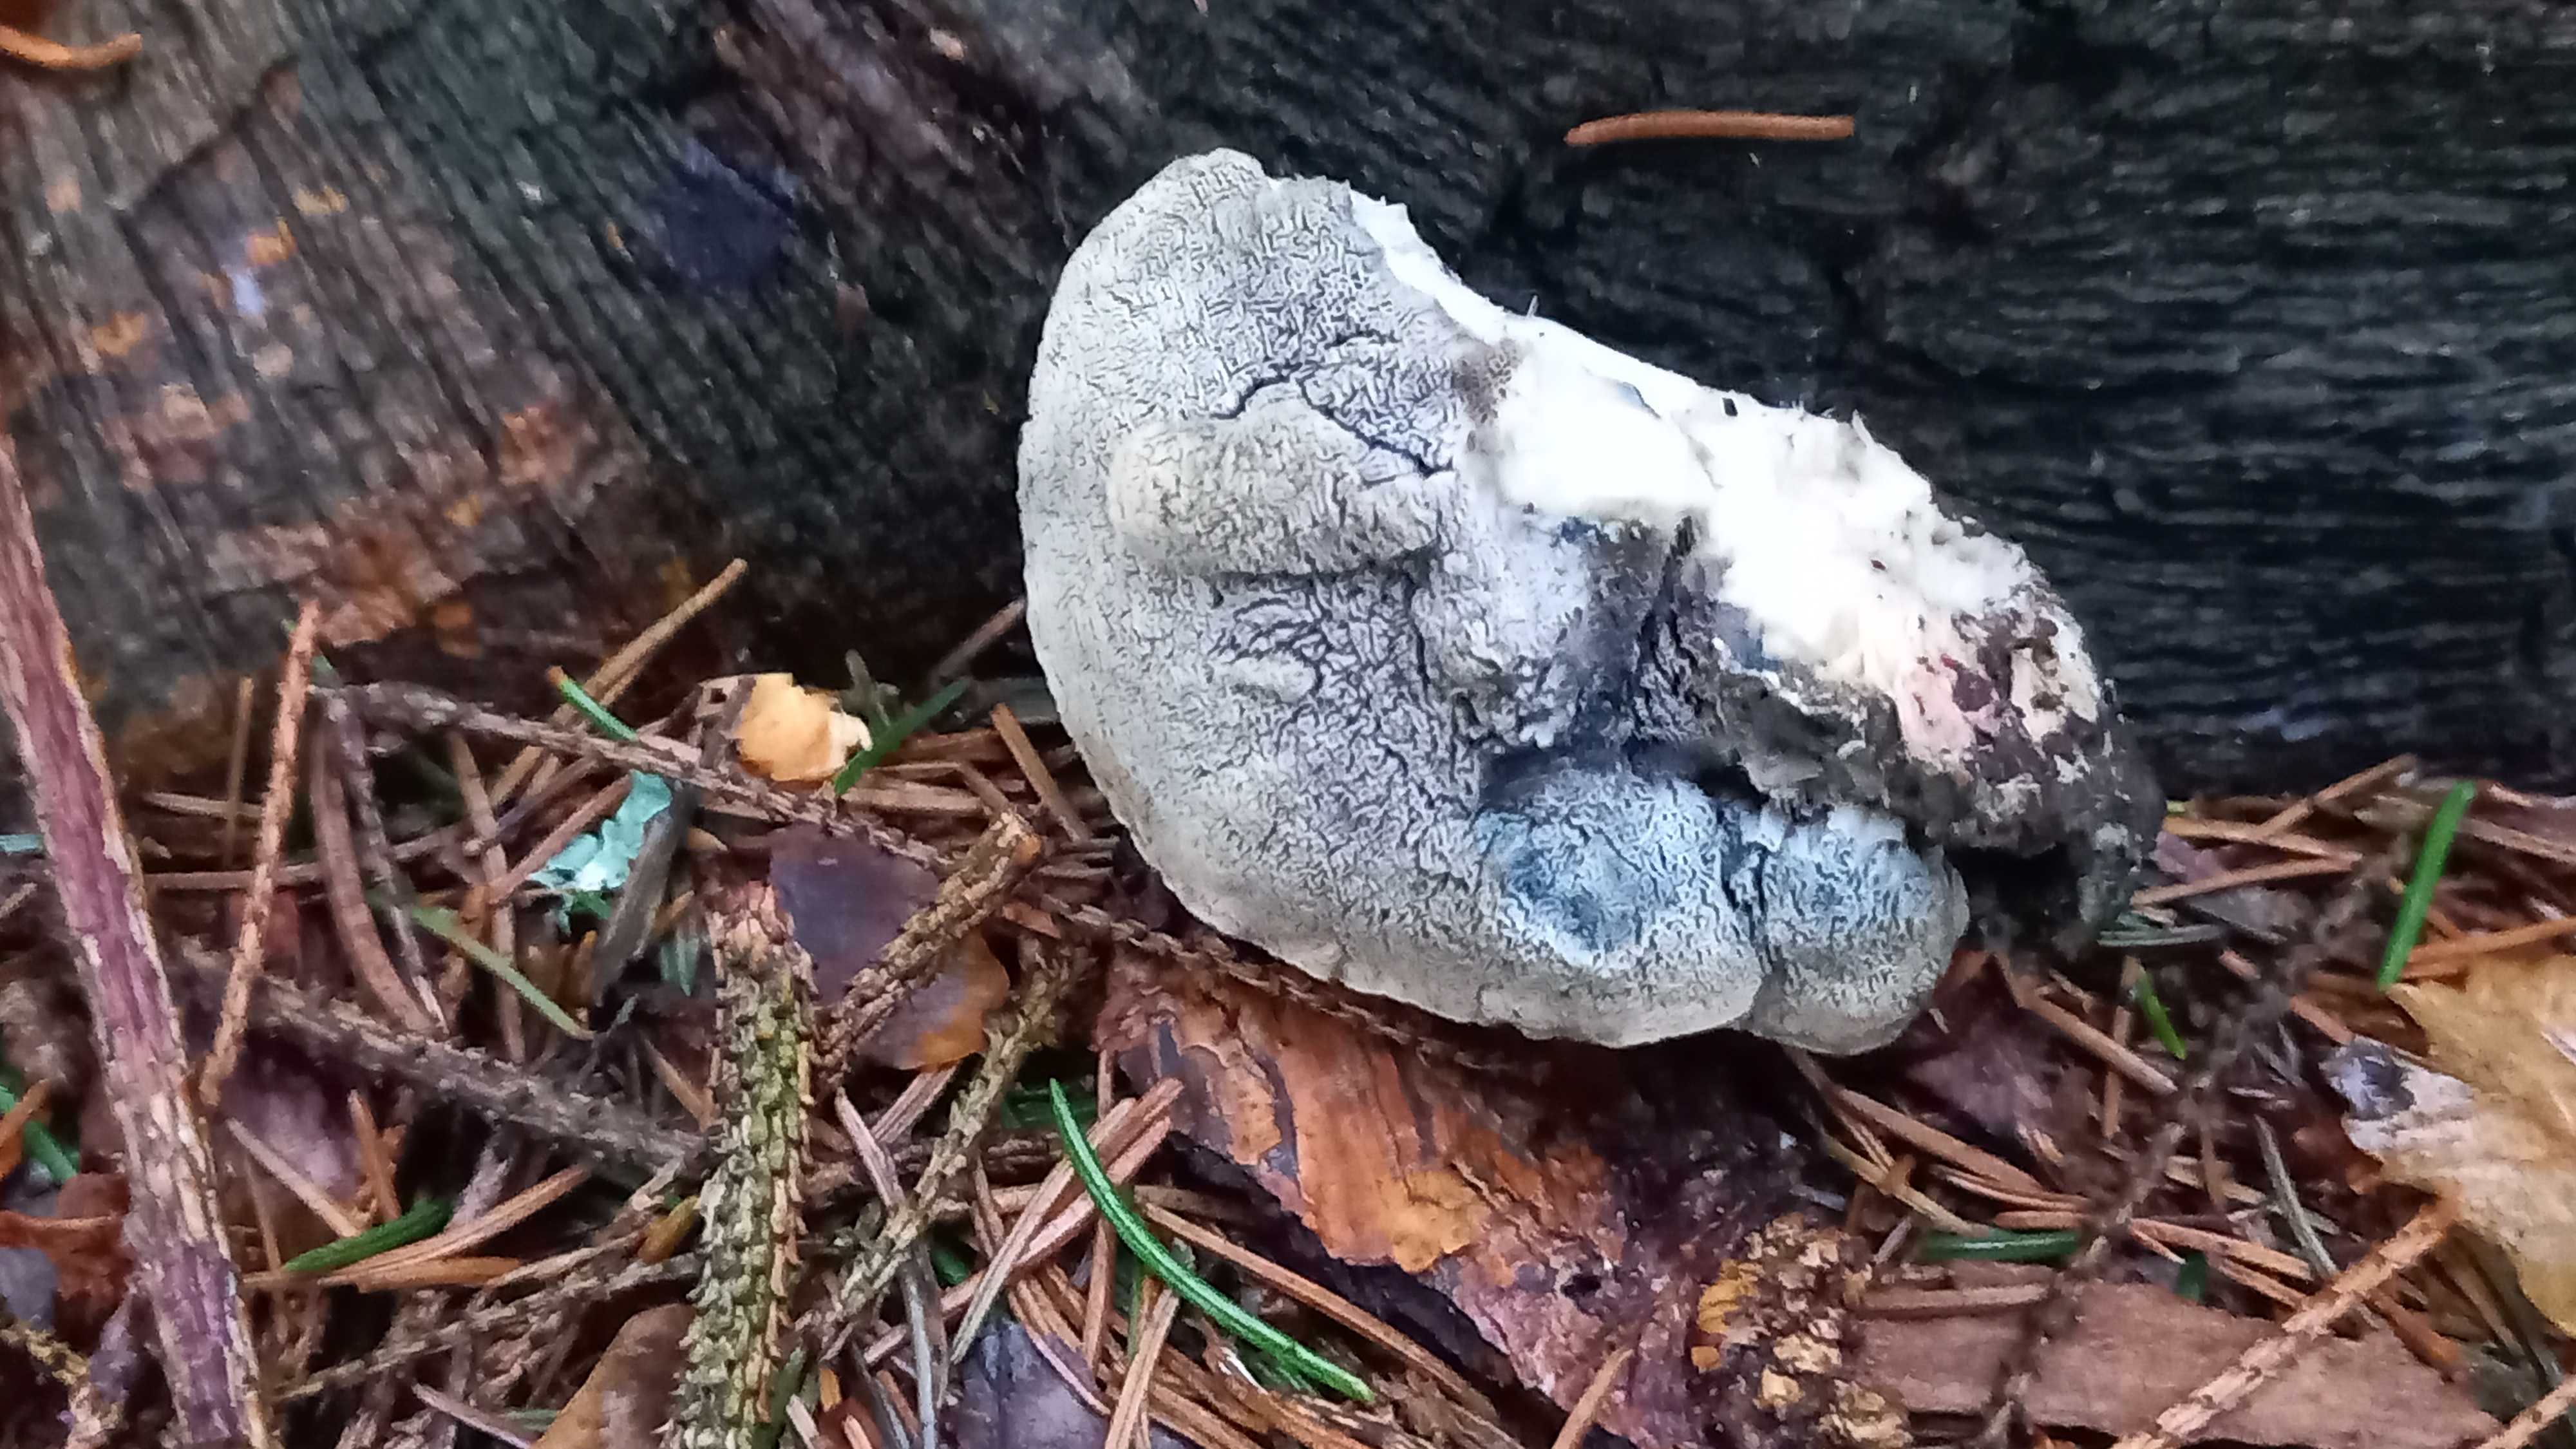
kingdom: Fungi
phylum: Basidiomycota
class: Agaricomycetes
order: Polyporales
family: Polyporaceae
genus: Cyanosporus
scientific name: Cyanosporus caesius
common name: blålig kødporesvamp
